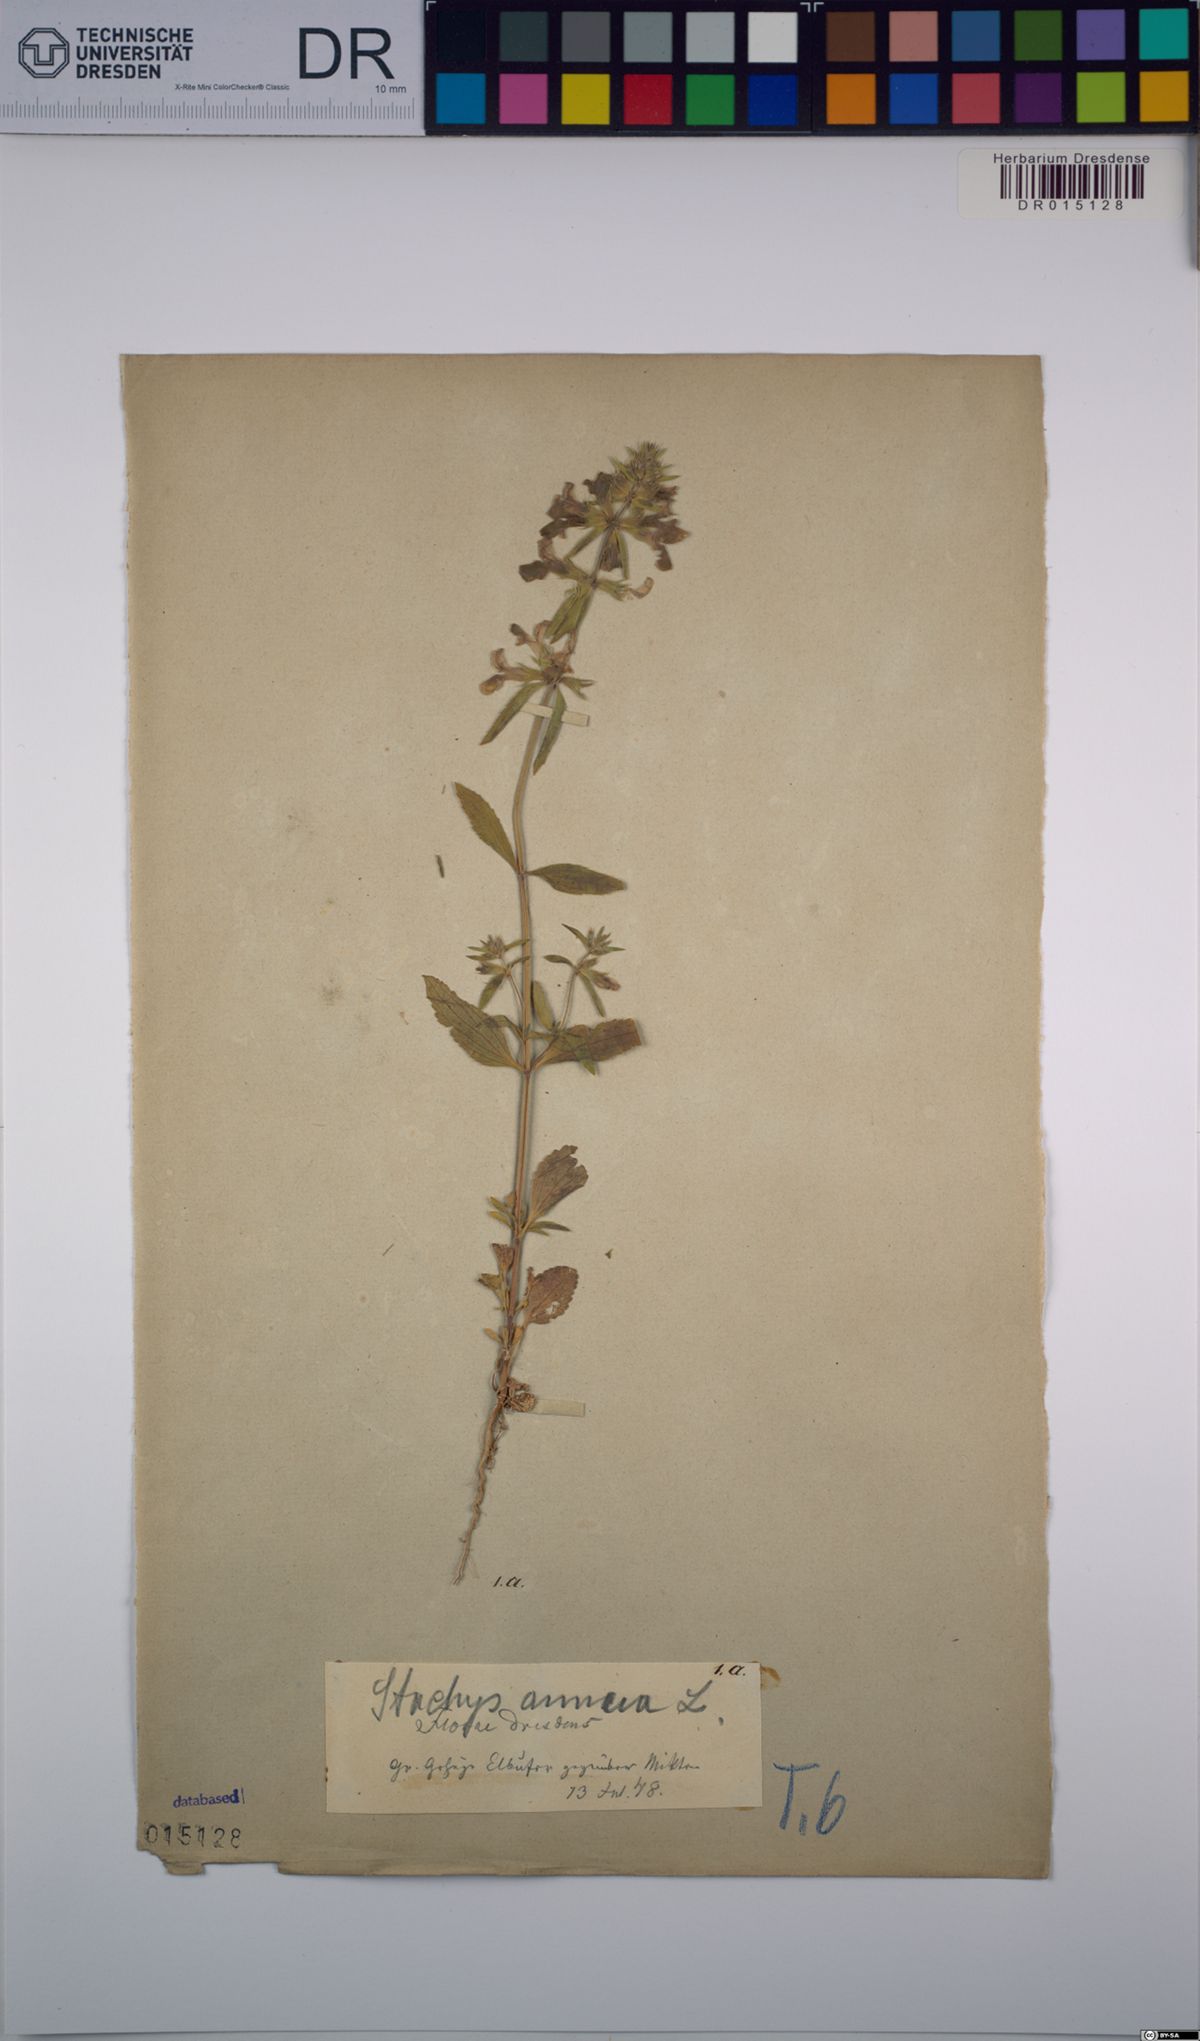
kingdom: Plantae
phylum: Tracheophyta
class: Magnoliopsida
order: Lamiales
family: Lamiaceae
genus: Stachys
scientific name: Stachys annua
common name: Annual yellow-woundwort
